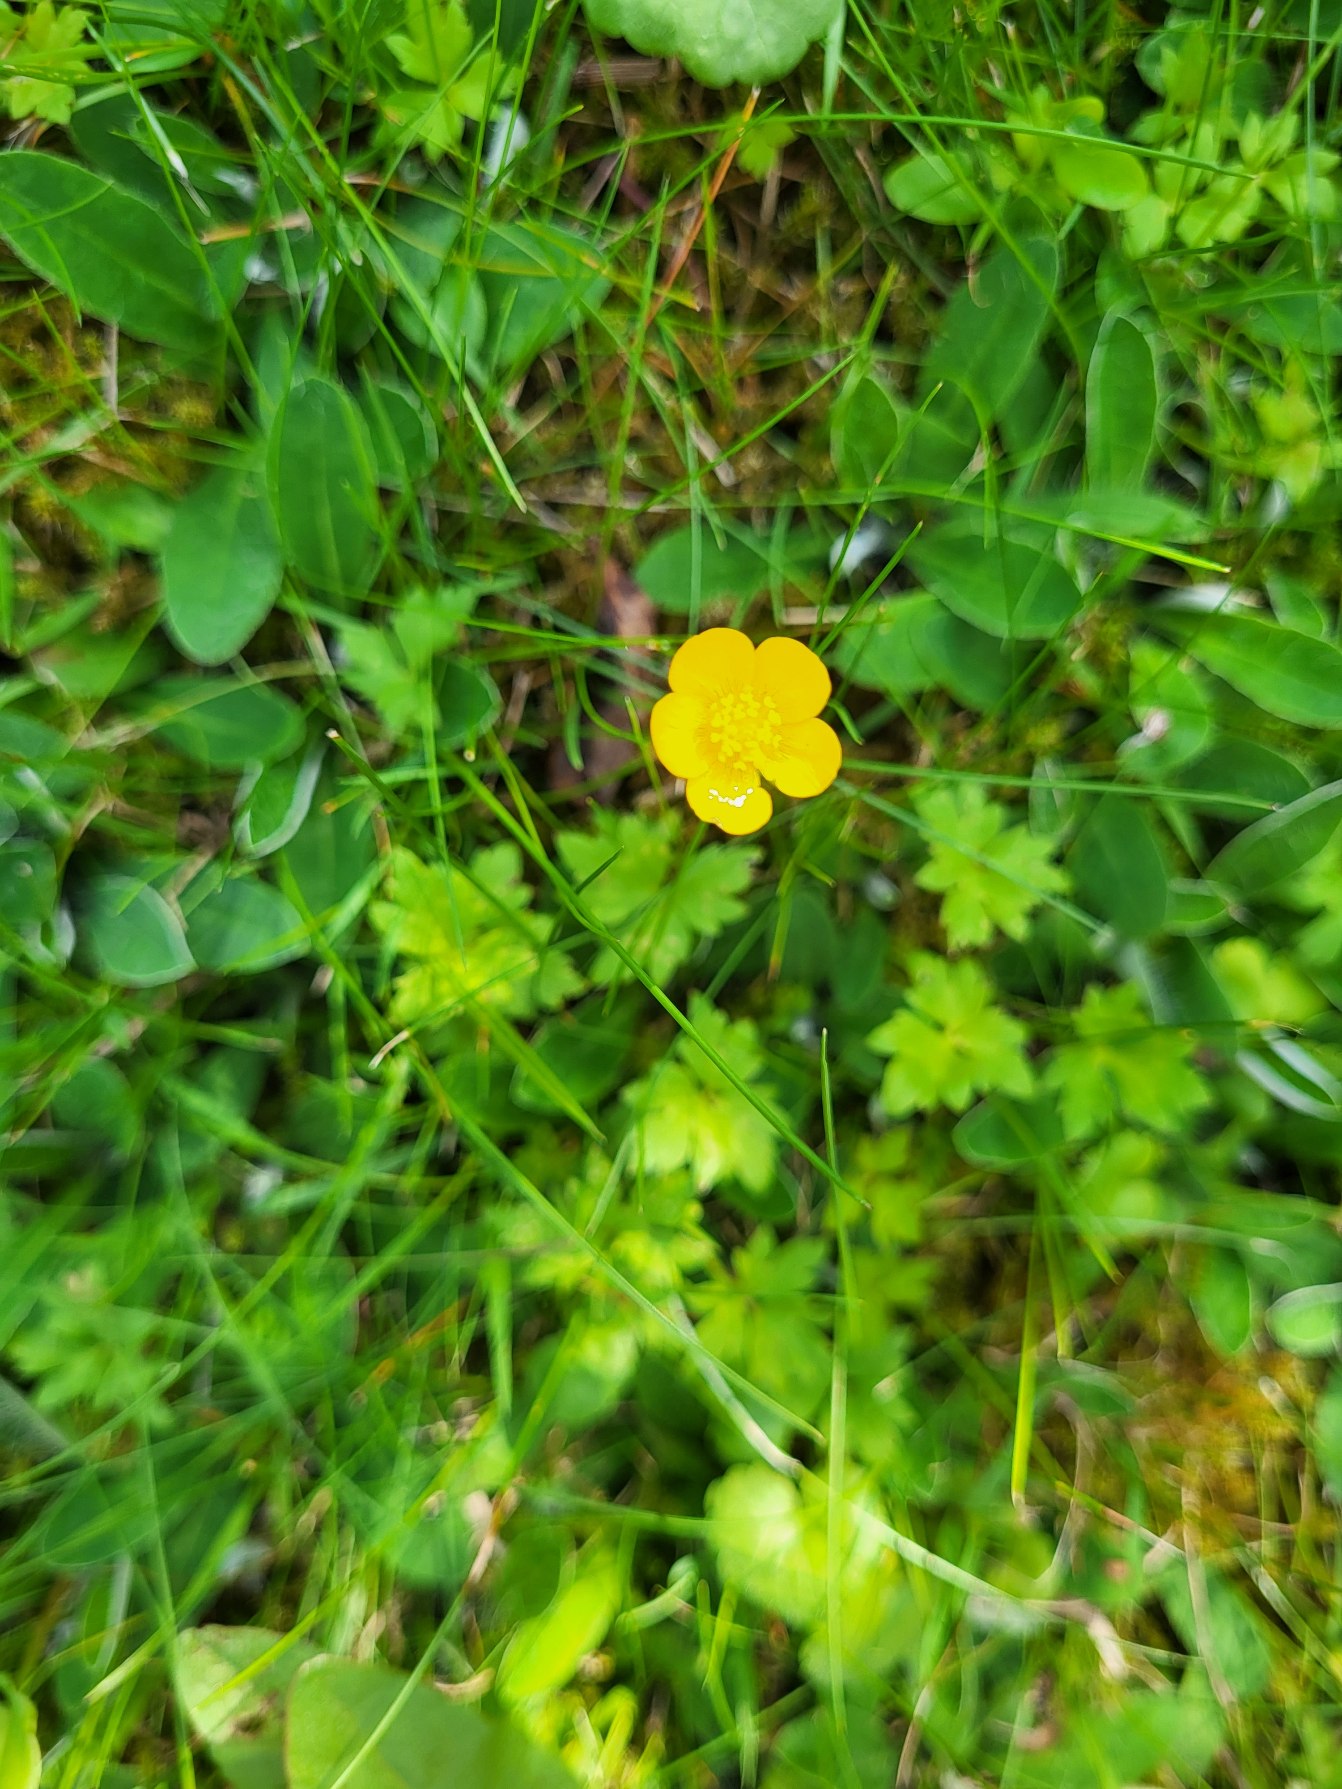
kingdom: Plantae
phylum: Tracheophyta
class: Magnoliopsida
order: Ranunculales
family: Ranunculaceae
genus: Ranunculus
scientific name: Ranunculus repens
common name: Lav ranunkel
